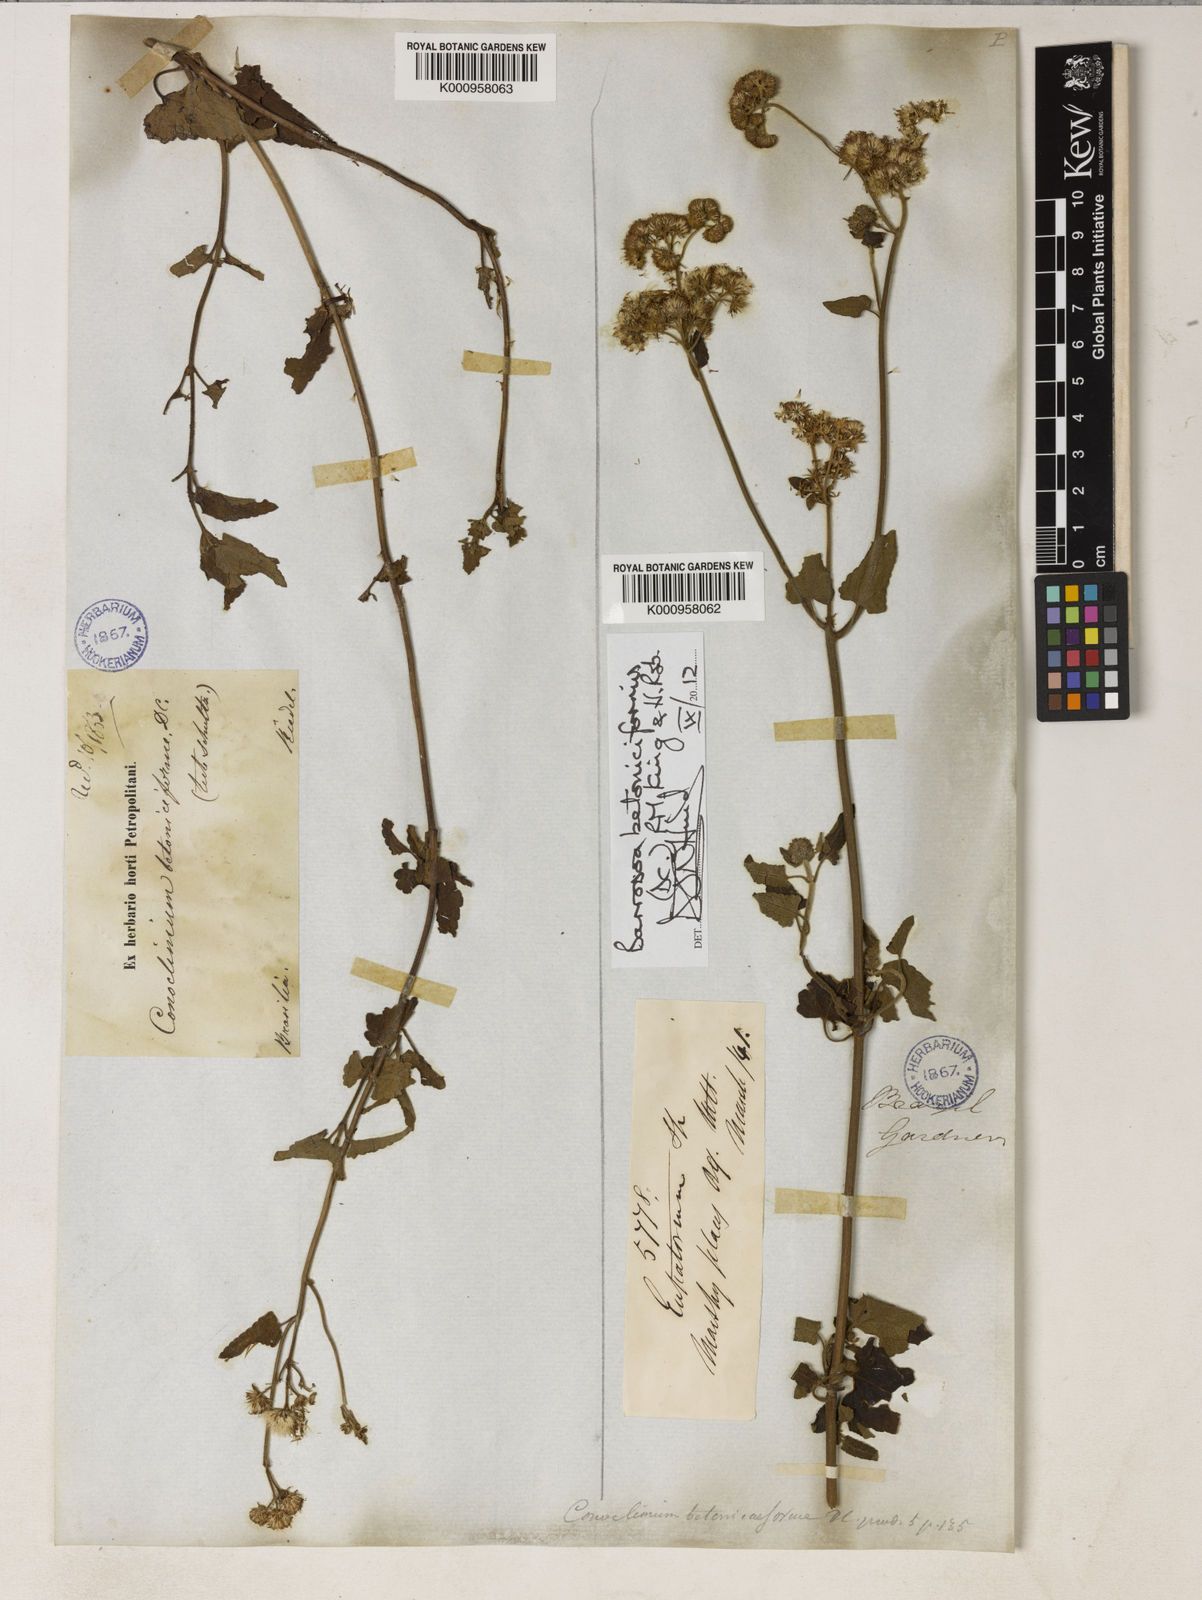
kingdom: Plantae
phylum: Tracheophyta
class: Magnoliopsida
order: Asterales
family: Asteraceae
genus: Barrosoa
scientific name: Barrosoa betoniciformis
